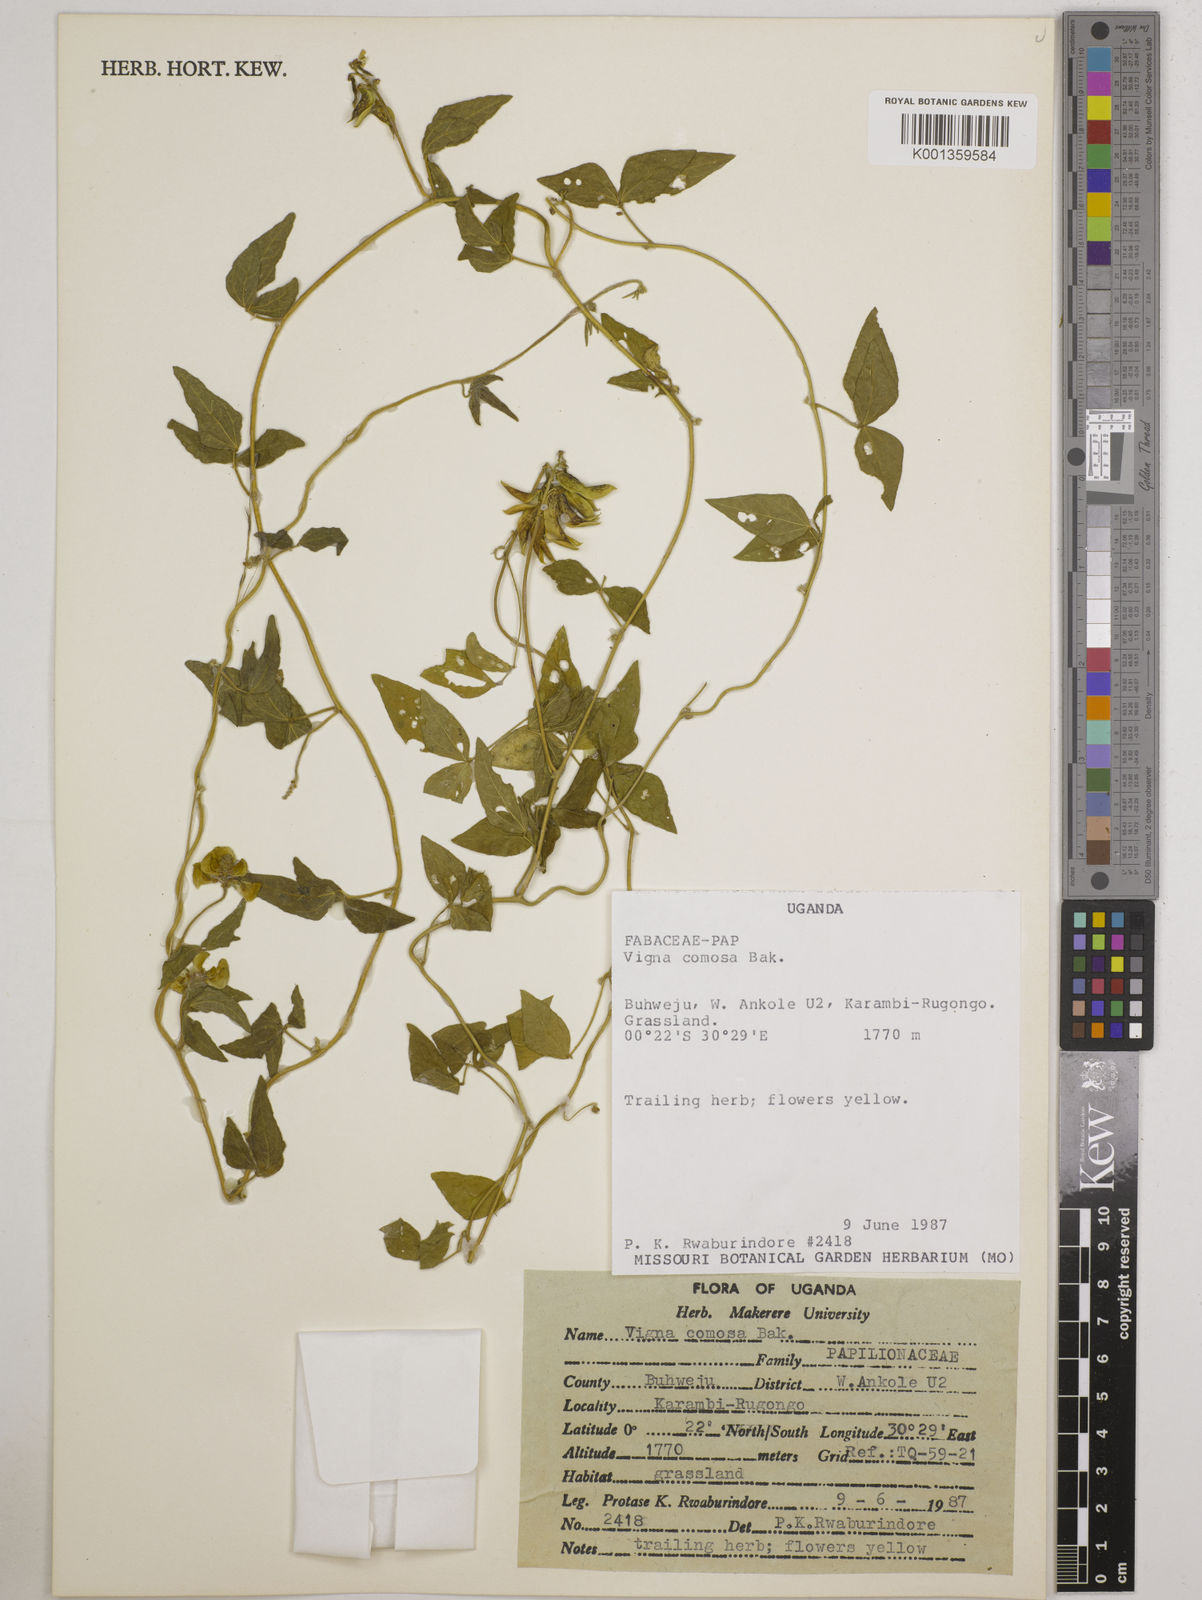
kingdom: Plantae
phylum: Tracheophyta
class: Magnoliopsida
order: Fabales
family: Fabaceae
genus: Vigna
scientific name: Vigna comosa
